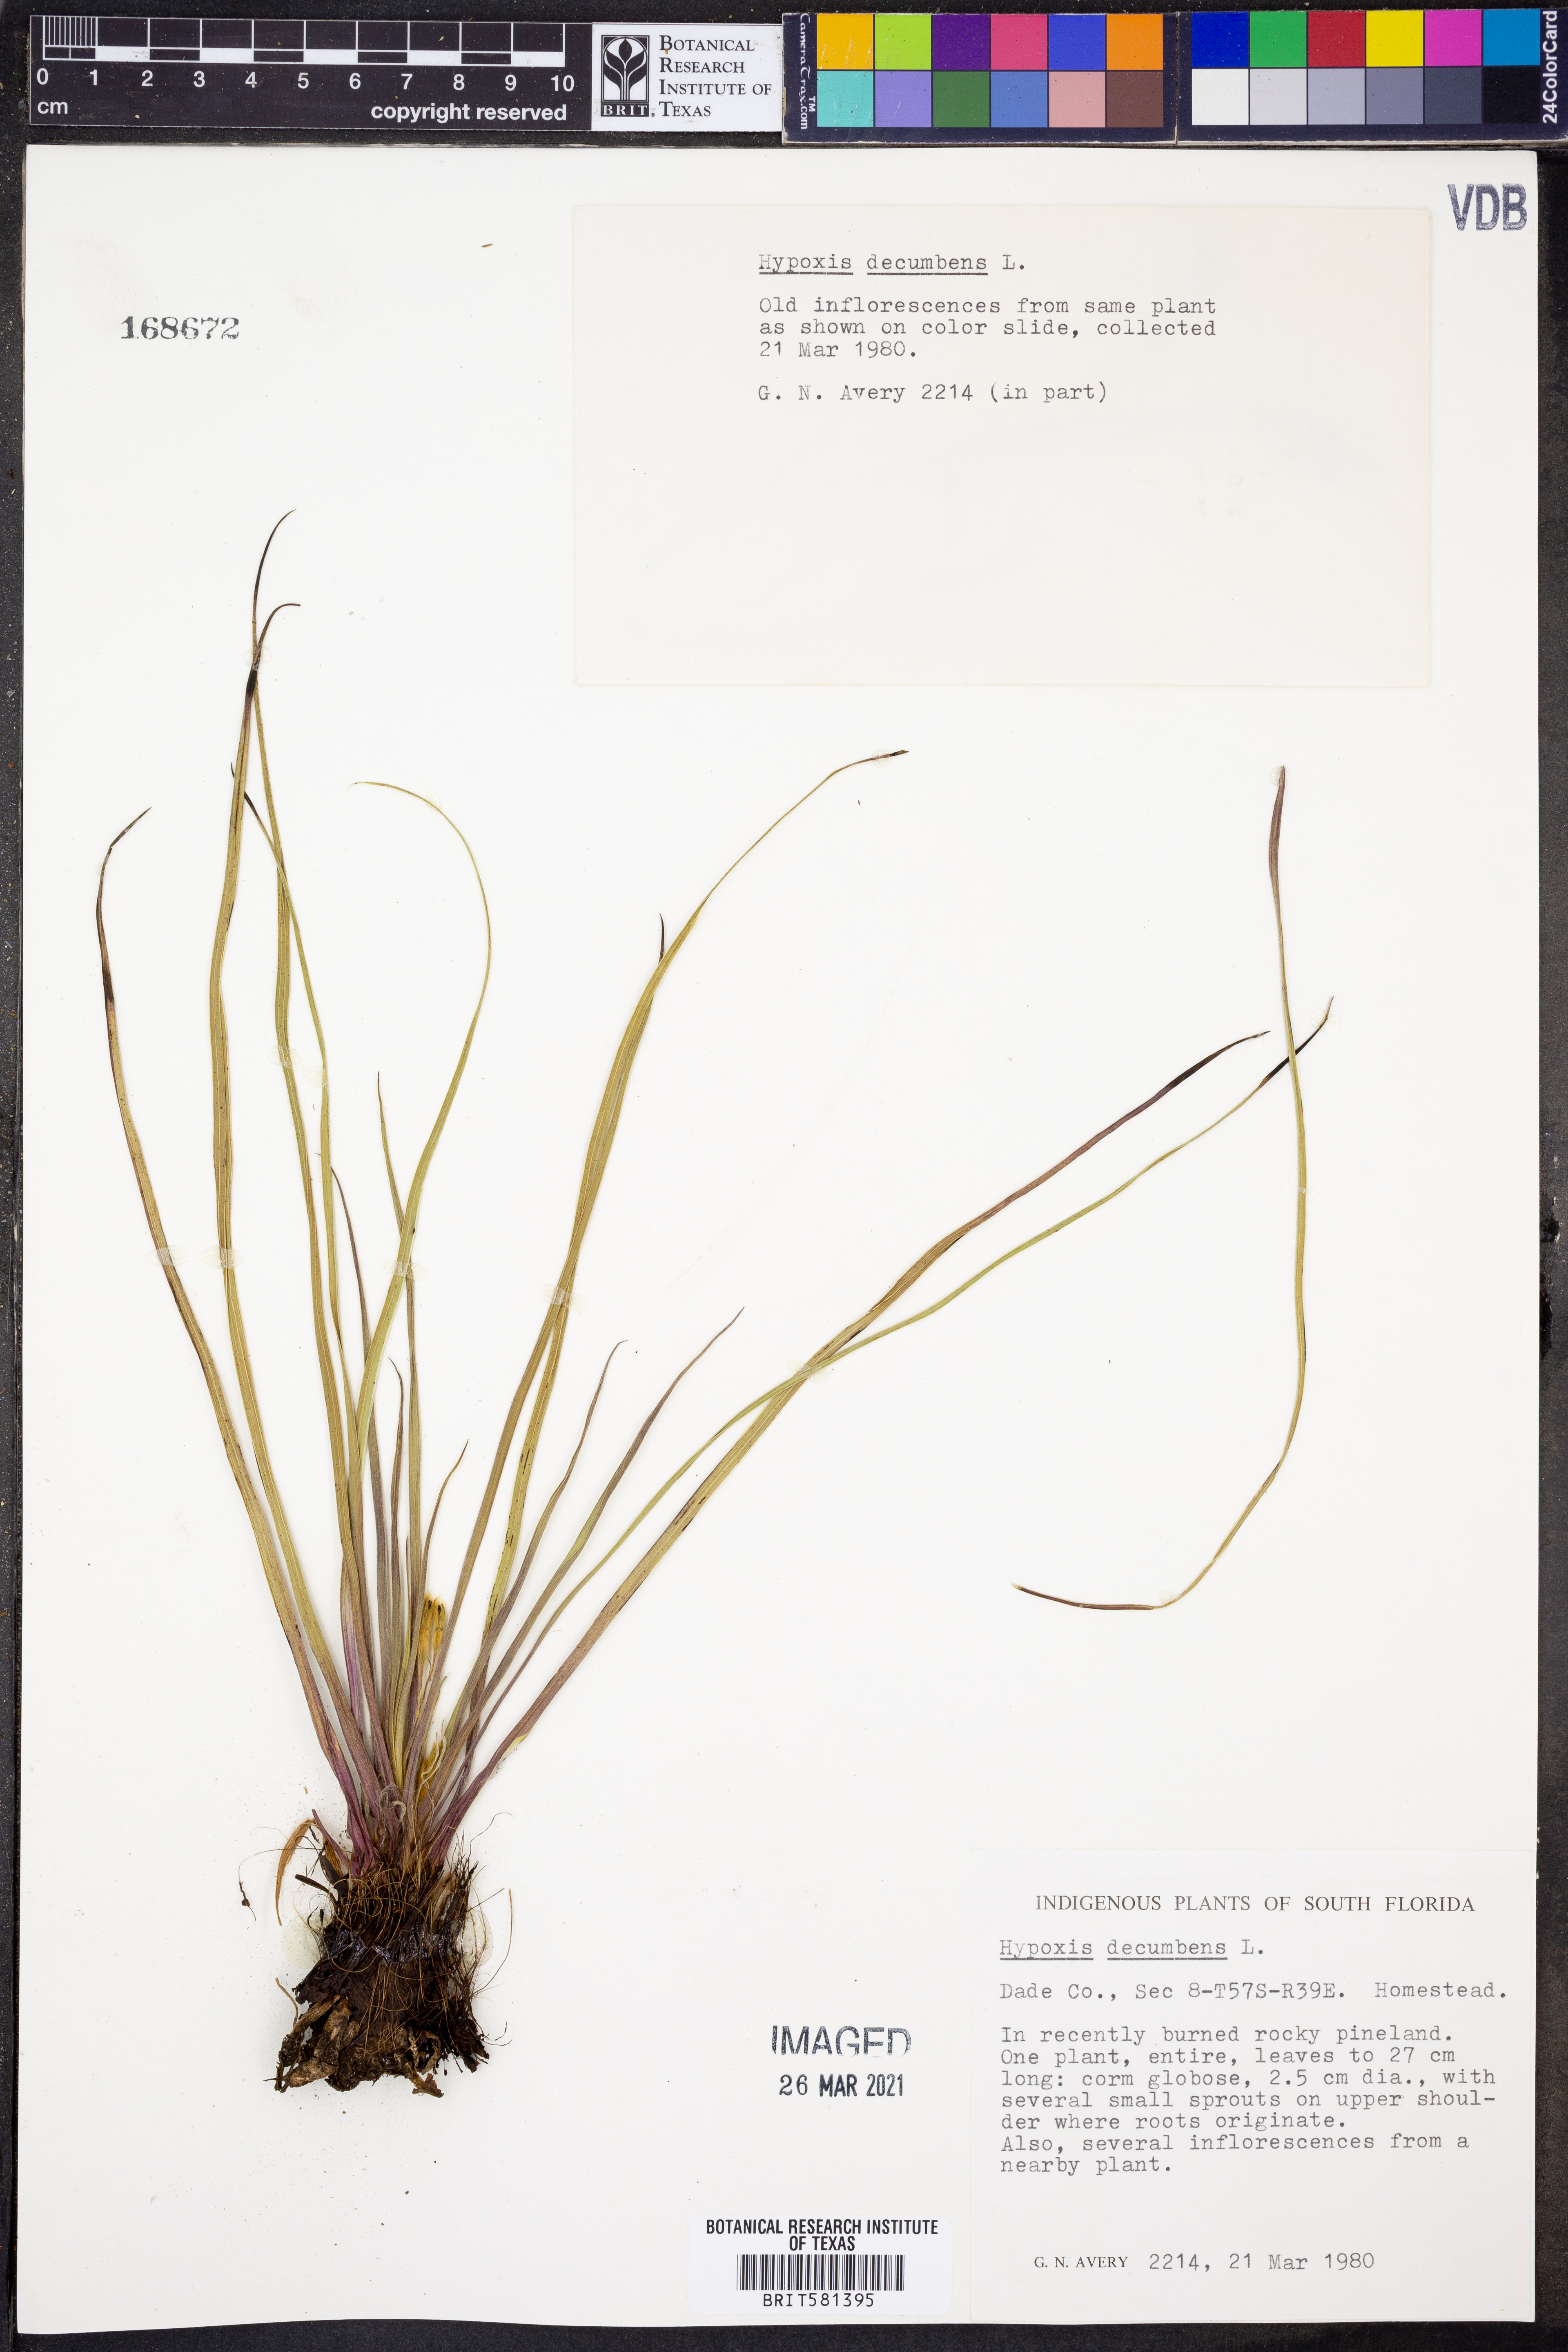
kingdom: Plantae
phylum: Tracheophyta
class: Liliopsida
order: Asparagales
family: Hypoxidaceae
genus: Hypoxis
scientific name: Hypoxis decumbens
